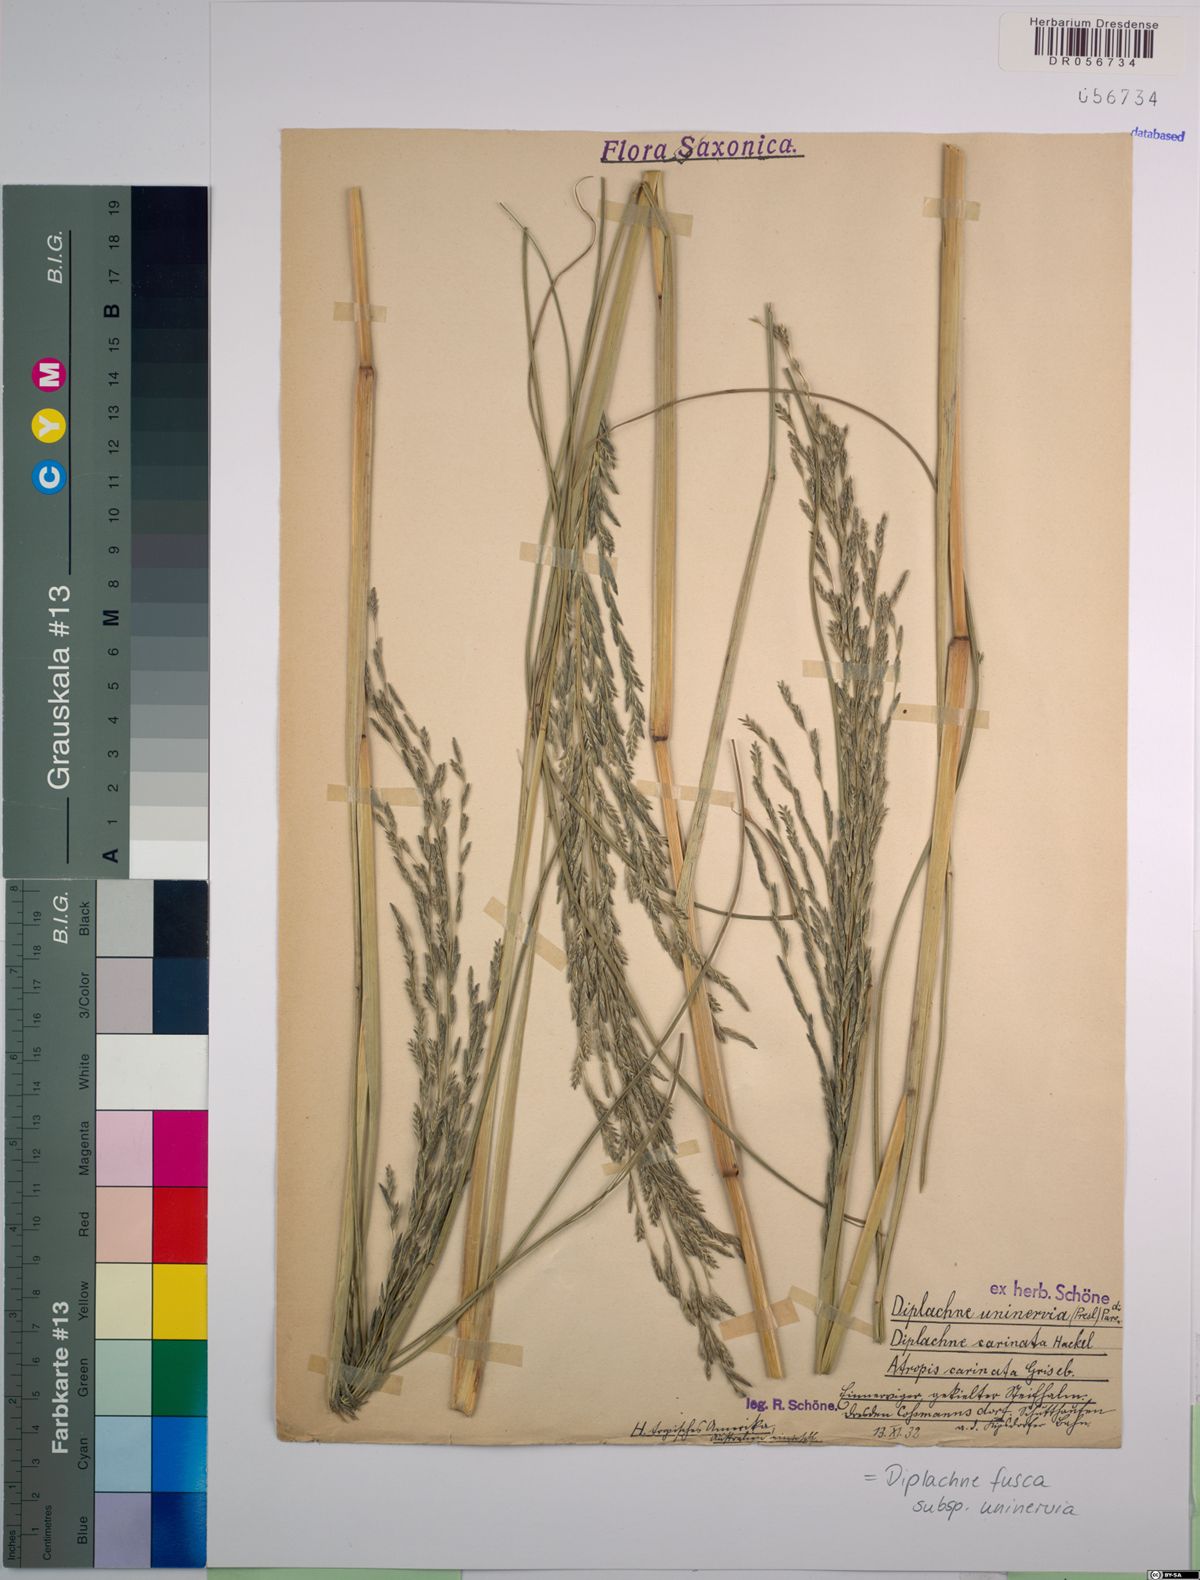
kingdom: Plantae
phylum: Tracheophyta
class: Liliopsida
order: Poales
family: Poaceae
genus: Diplachne
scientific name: Diplachne fusca
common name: Brown beetle grass
